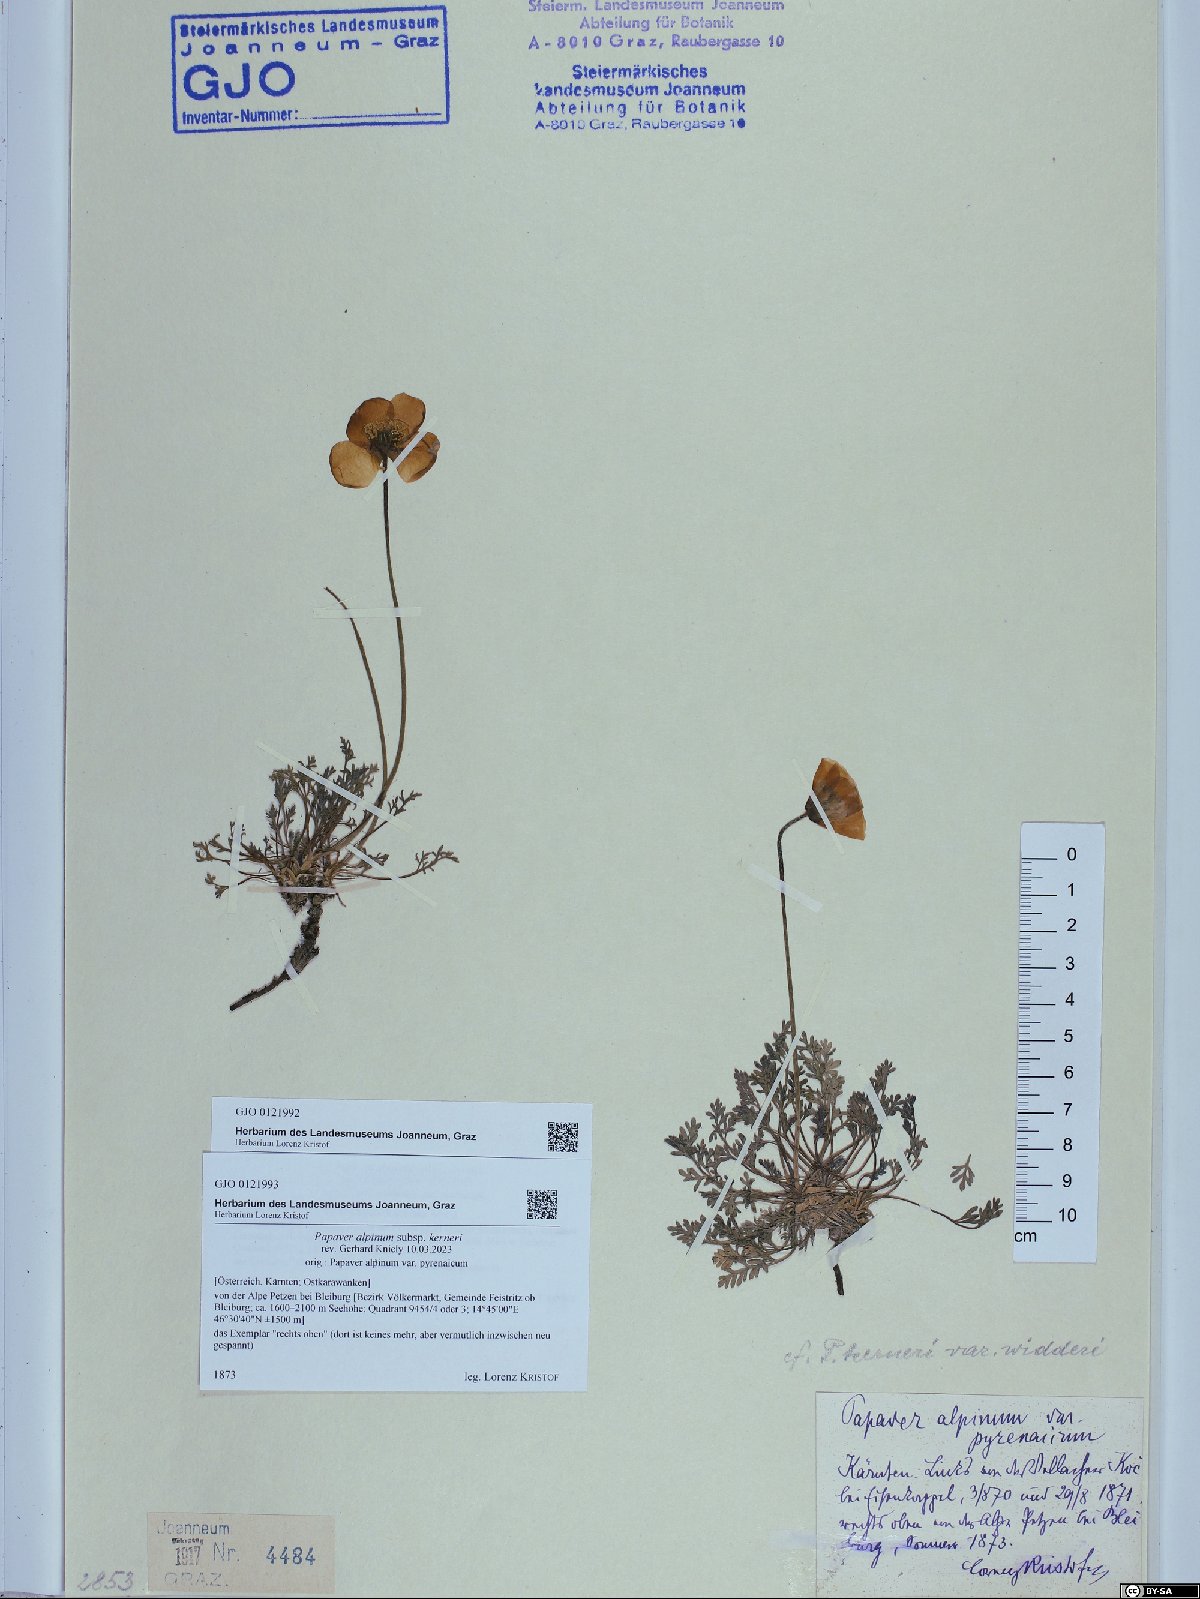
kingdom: Plantae
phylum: Tracheophyta
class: Magnoliopsida
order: Ranunculales
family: Papaveraceae
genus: Papaver
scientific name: Papaver alpinum
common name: Austrian poppy
